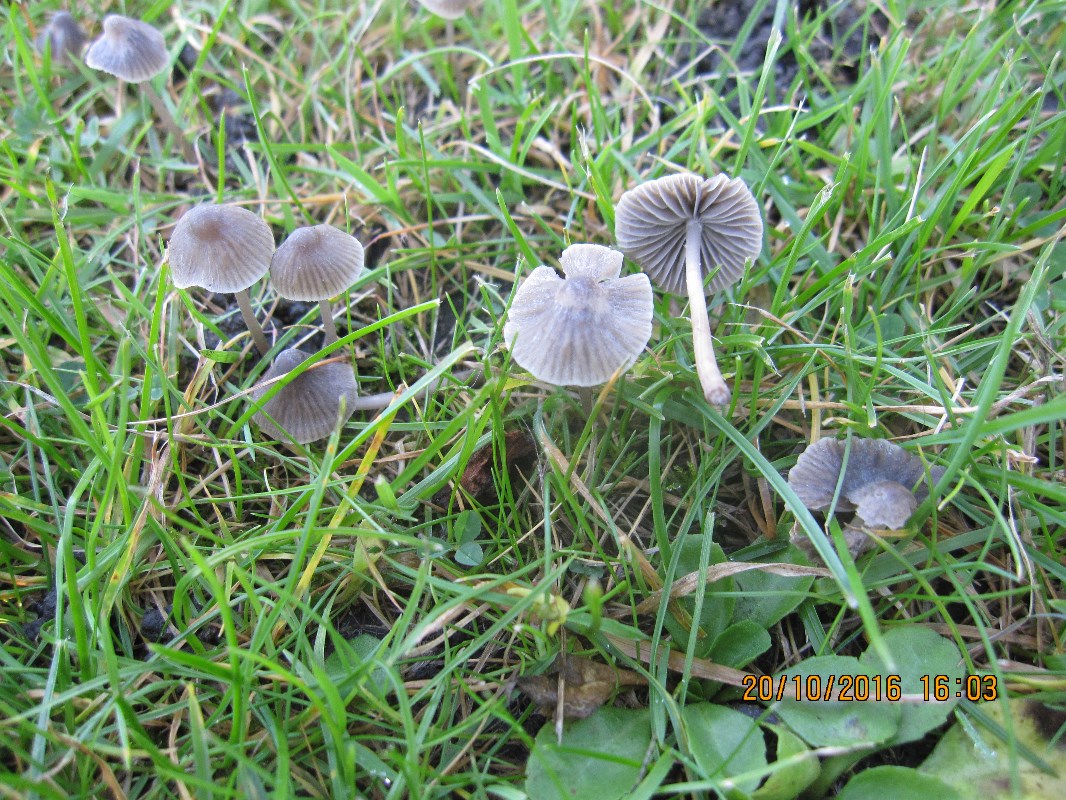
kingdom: Fungi
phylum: Basidiomycota
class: Agaricomycetes
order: Agaricales
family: Mycenaceae
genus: Mycena
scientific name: Mycena aetites
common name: plæne-huesvamp
